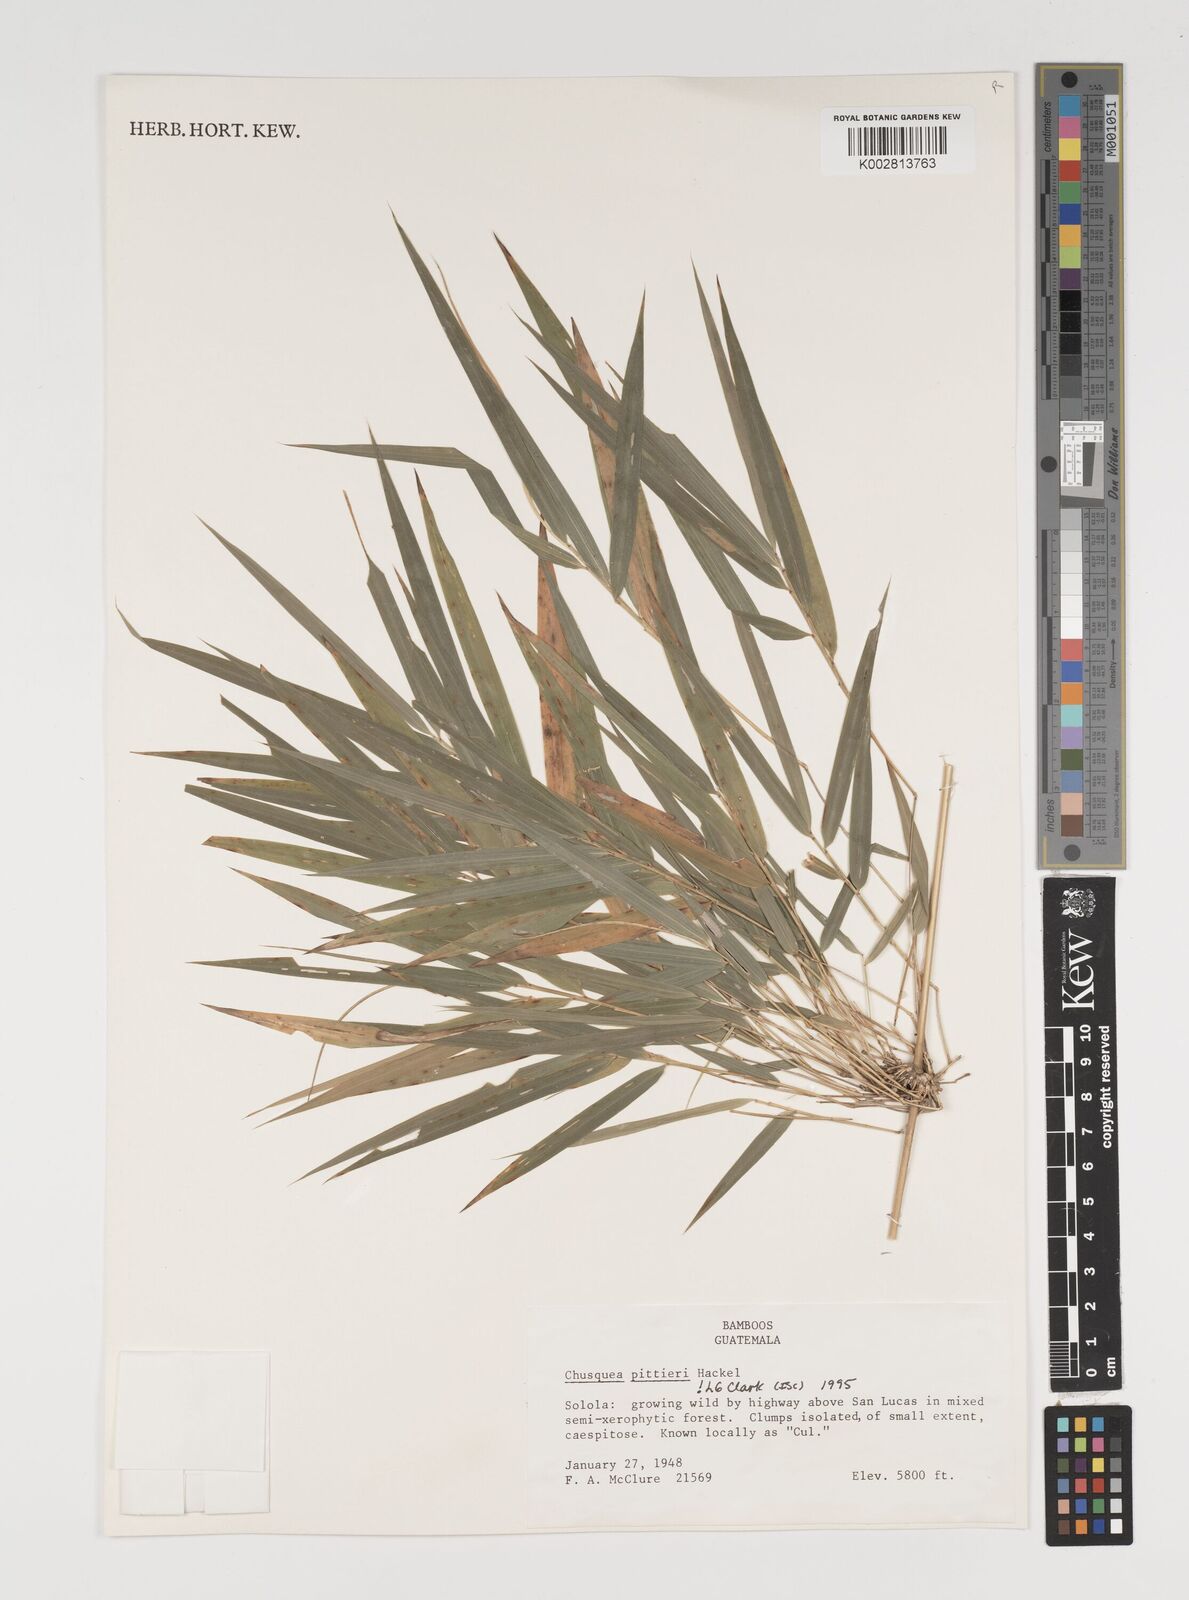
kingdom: Plantae
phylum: Tracheophyta
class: Liliopsida
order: Poales
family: Poaceae
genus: Chusquea
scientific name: Chusquea pittieri
